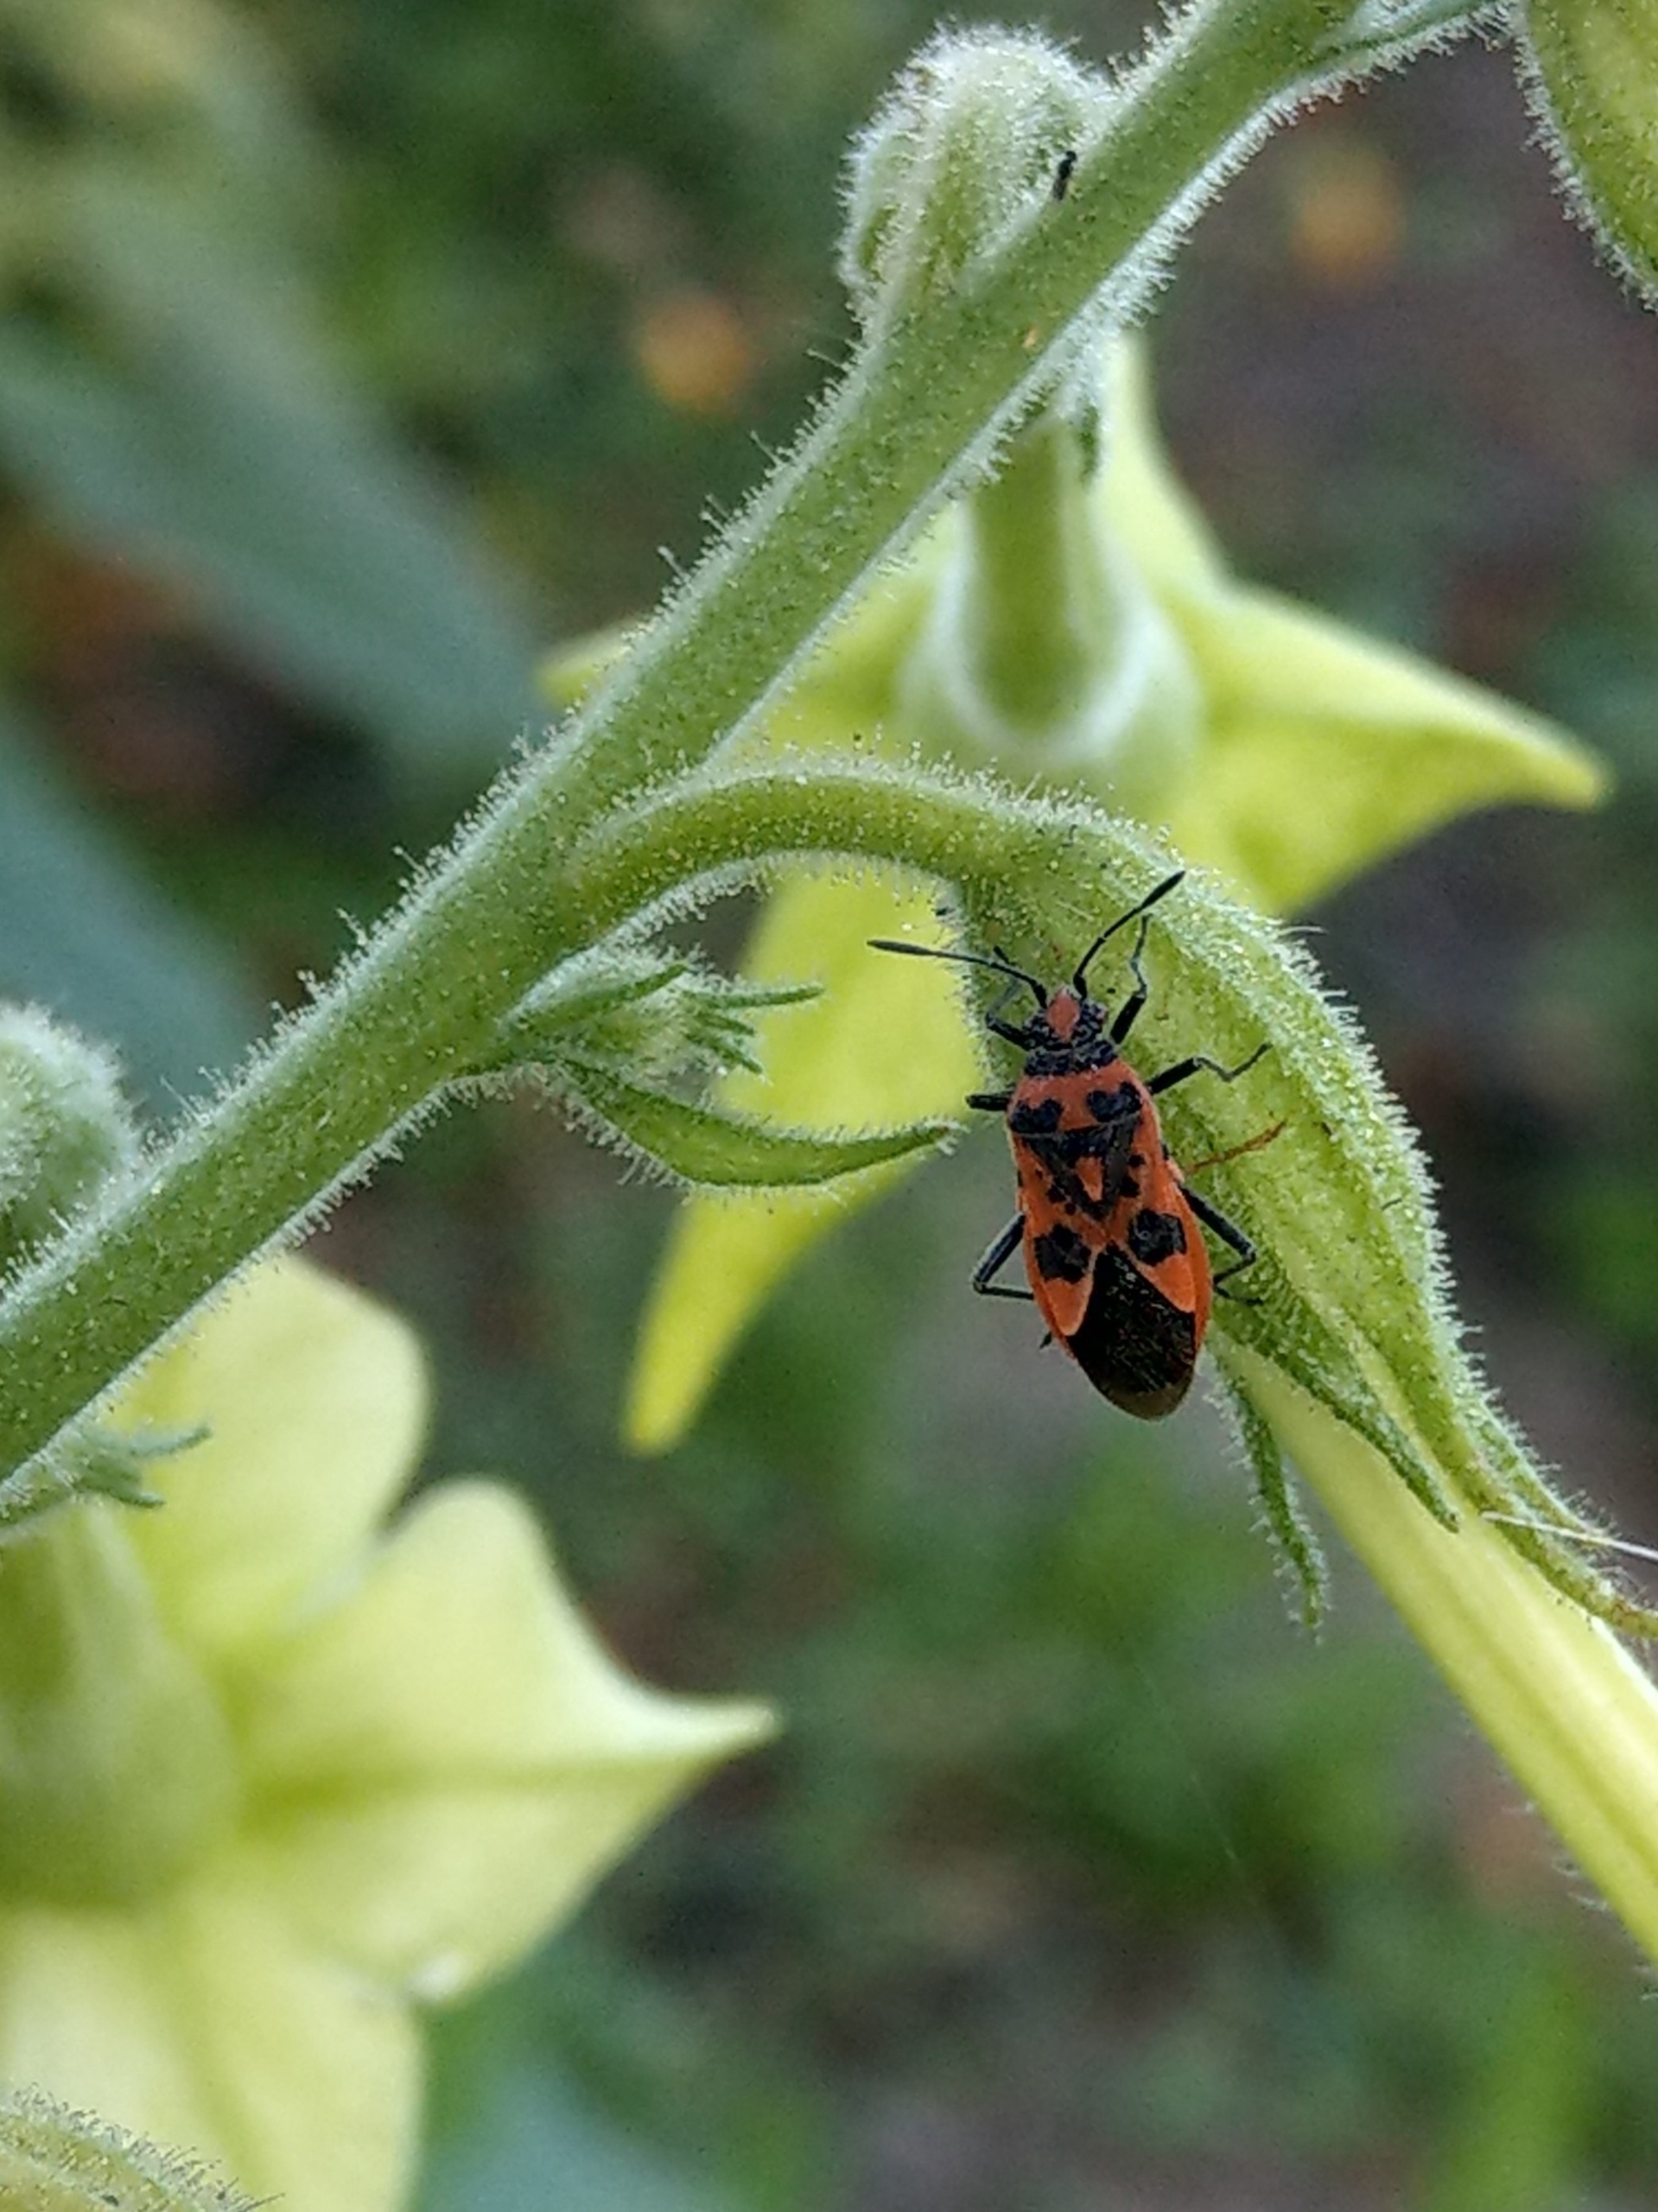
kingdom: Animalia
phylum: Arthropoda
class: Insecta
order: Hemiptera
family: Rhopalidae
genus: Corizus
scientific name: Corizus hyoscyami
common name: Rød kanttæge
